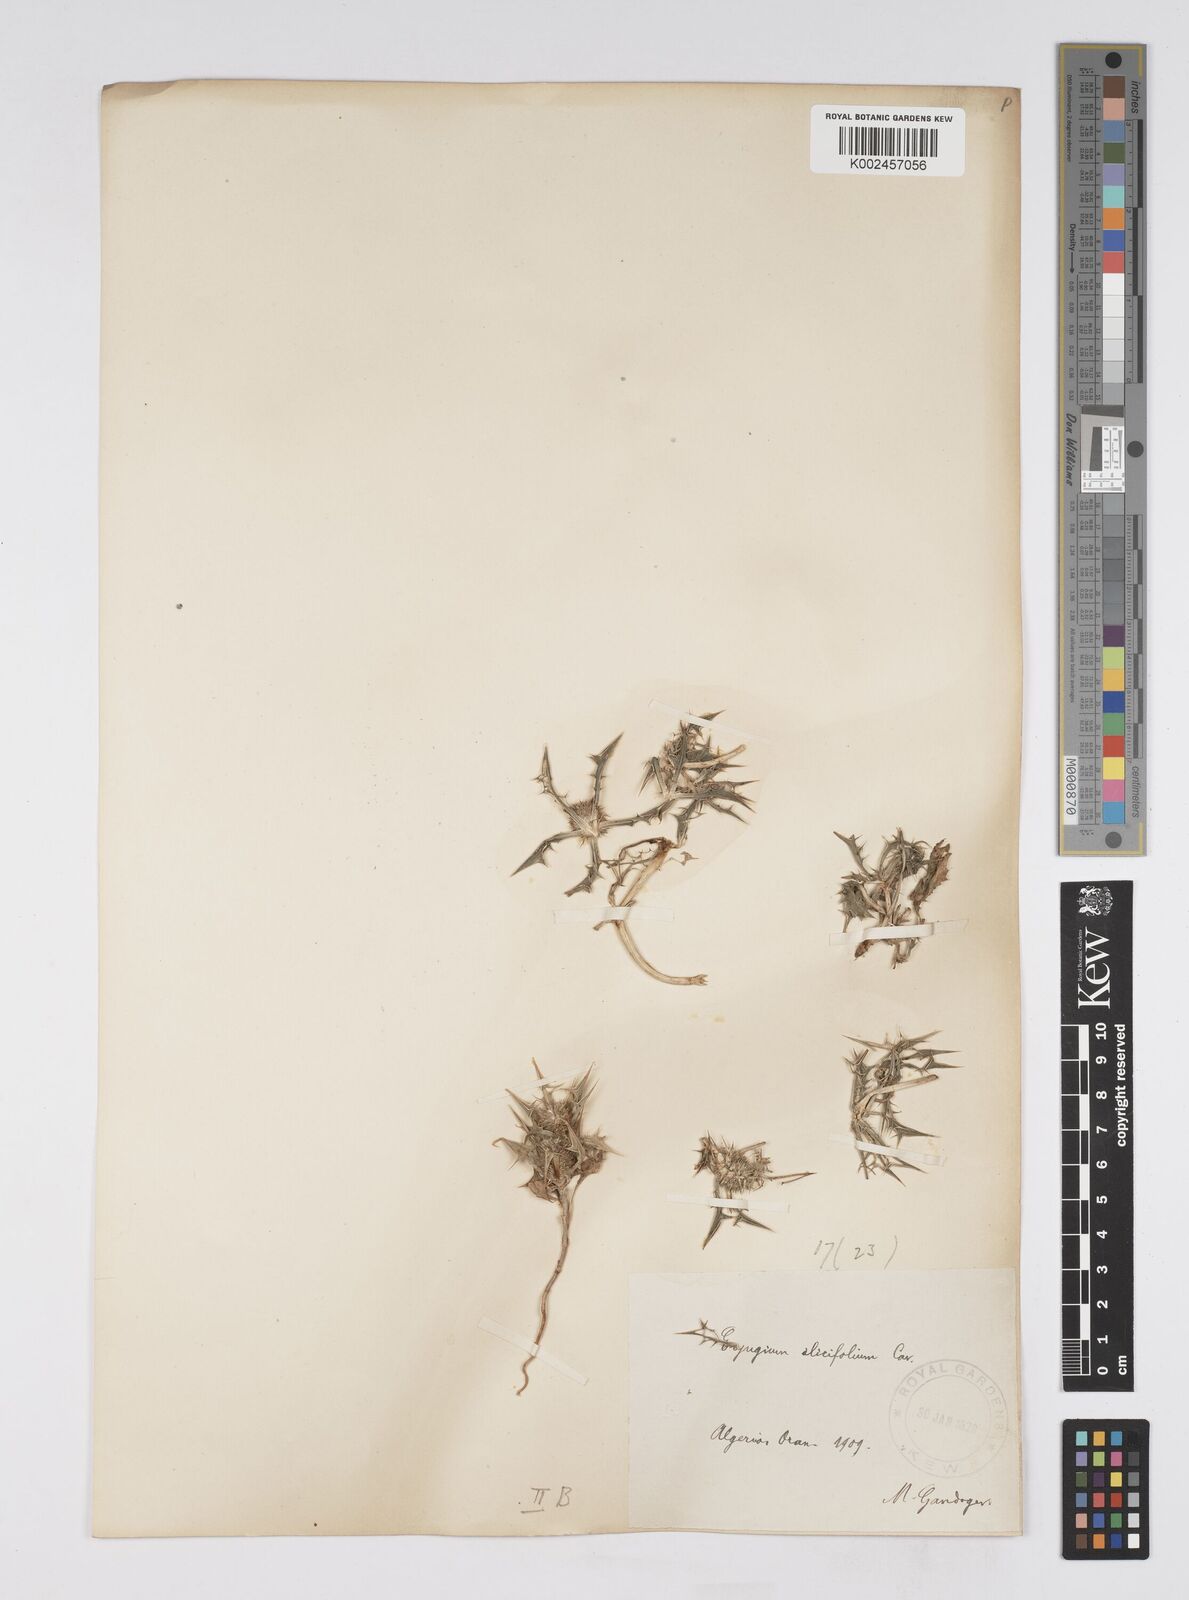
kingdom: Plantae
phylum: Tracheophyta
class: Magnoliopsida
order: Apiales
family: Apiaceae
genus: Eryngium
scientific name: Eryngium
